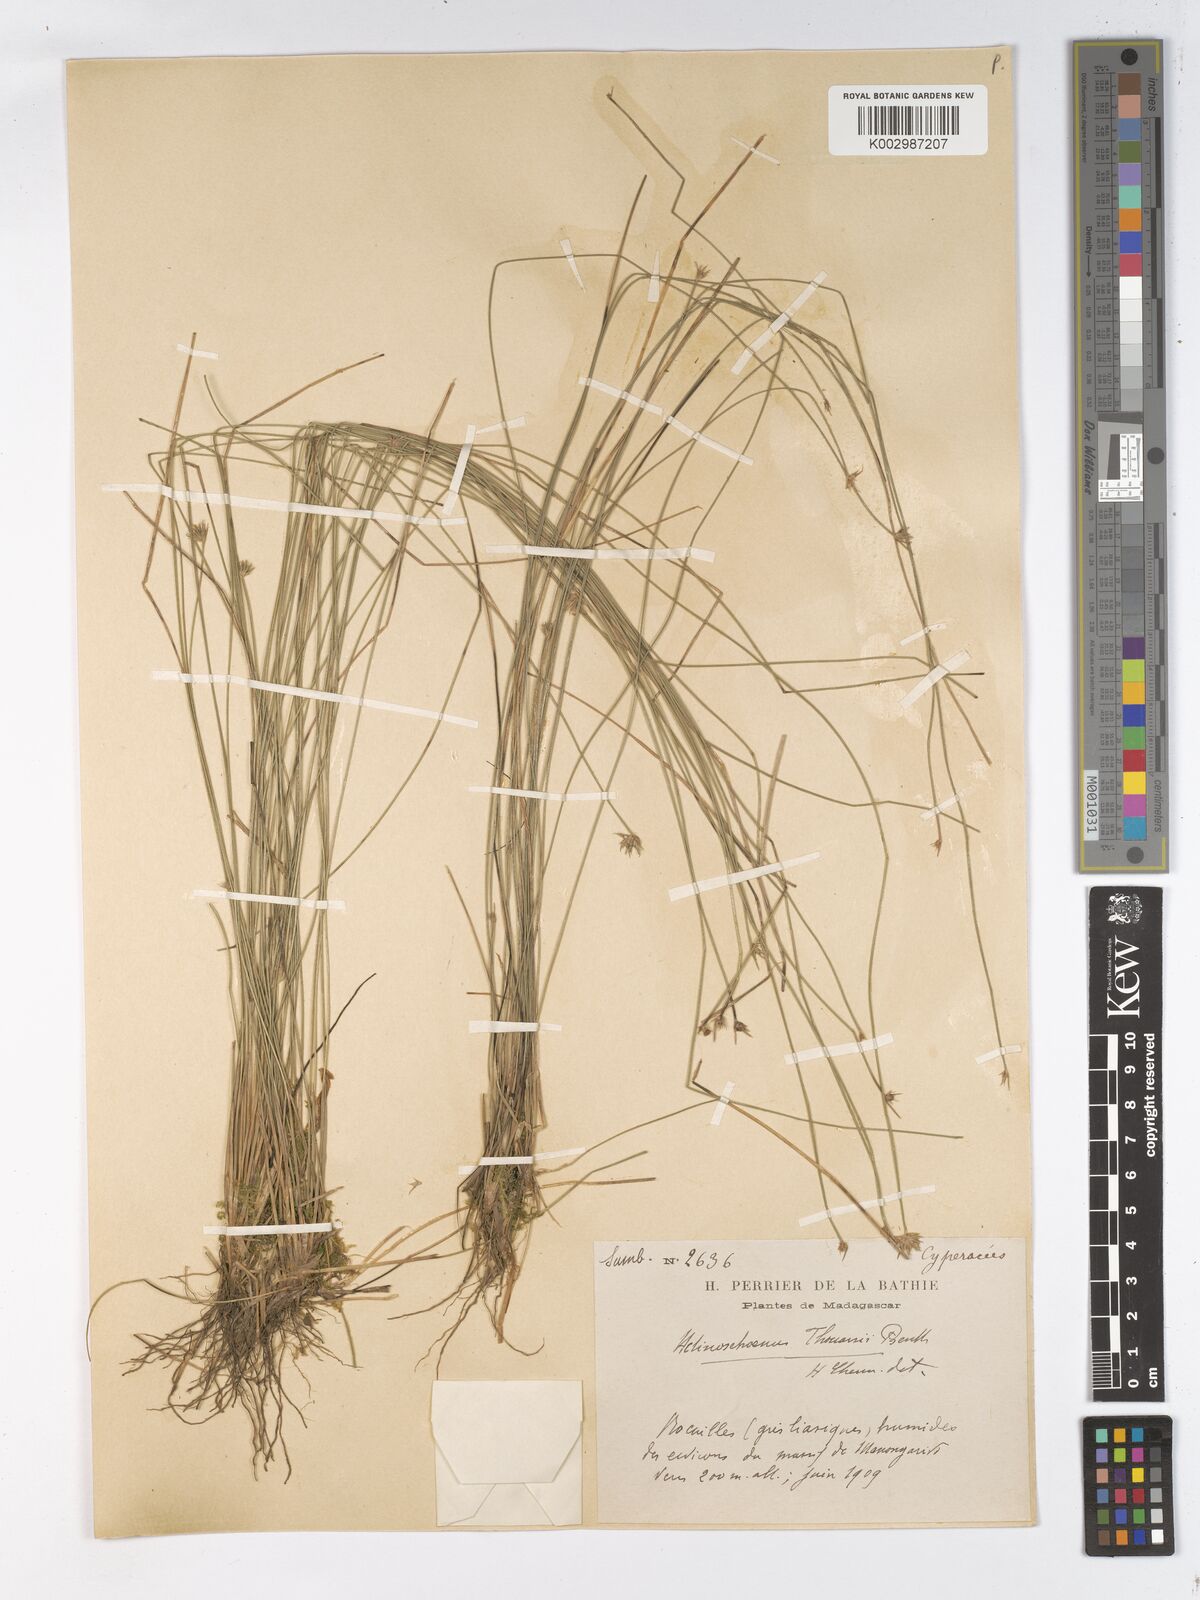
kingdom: Plantae
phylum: Tracheophyta
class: Liliopsida
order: Poales
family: Cyperaceae
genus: Actinoschoenus
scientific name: Actinoschoenus aphyllus
